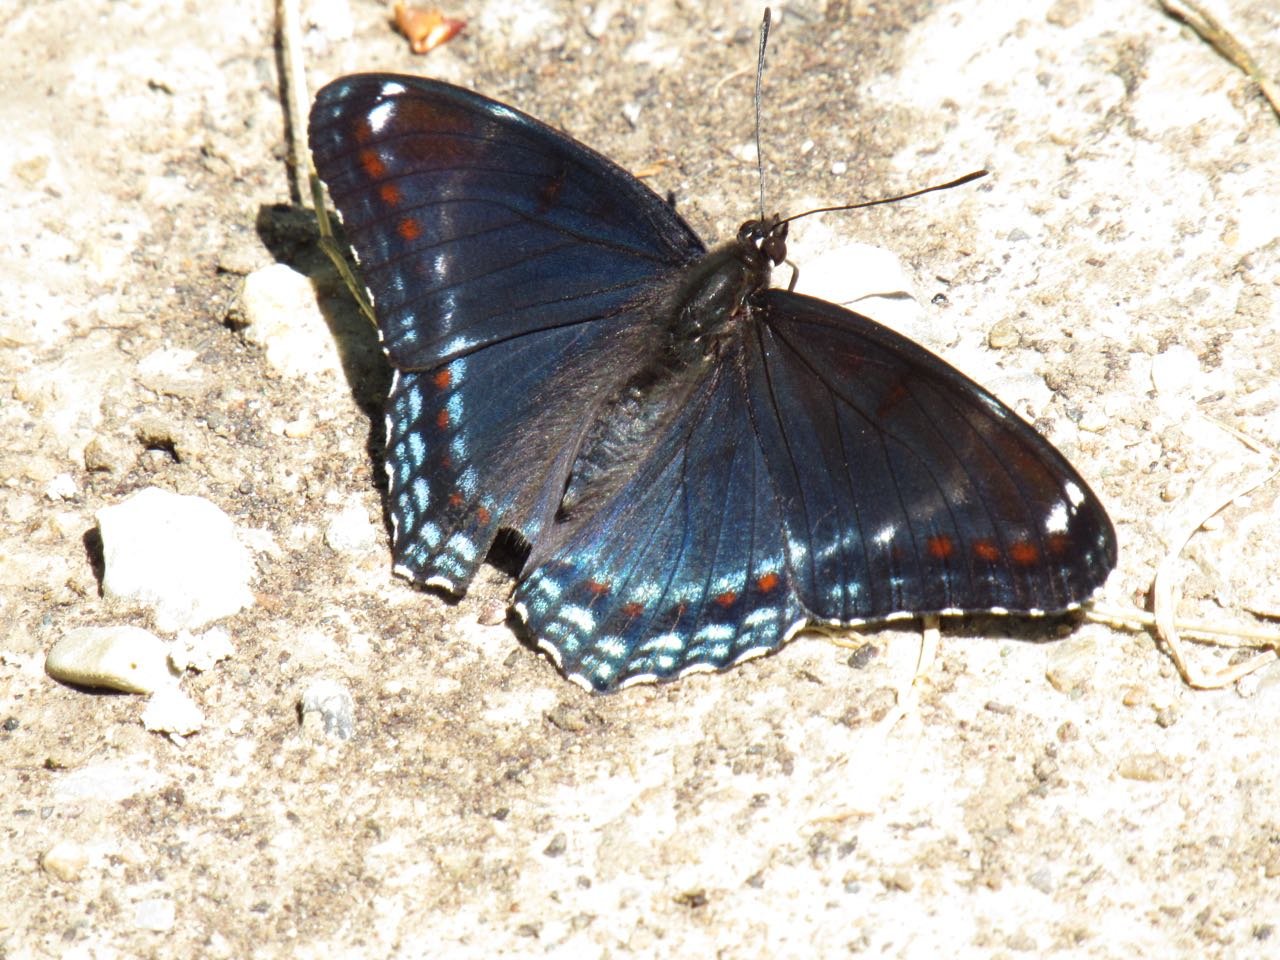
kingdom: Animalia
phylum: Arthropoda
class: Insecta
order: Lepidoptera
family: Nymphalidae
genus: Limenitis
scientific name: Limenitis
